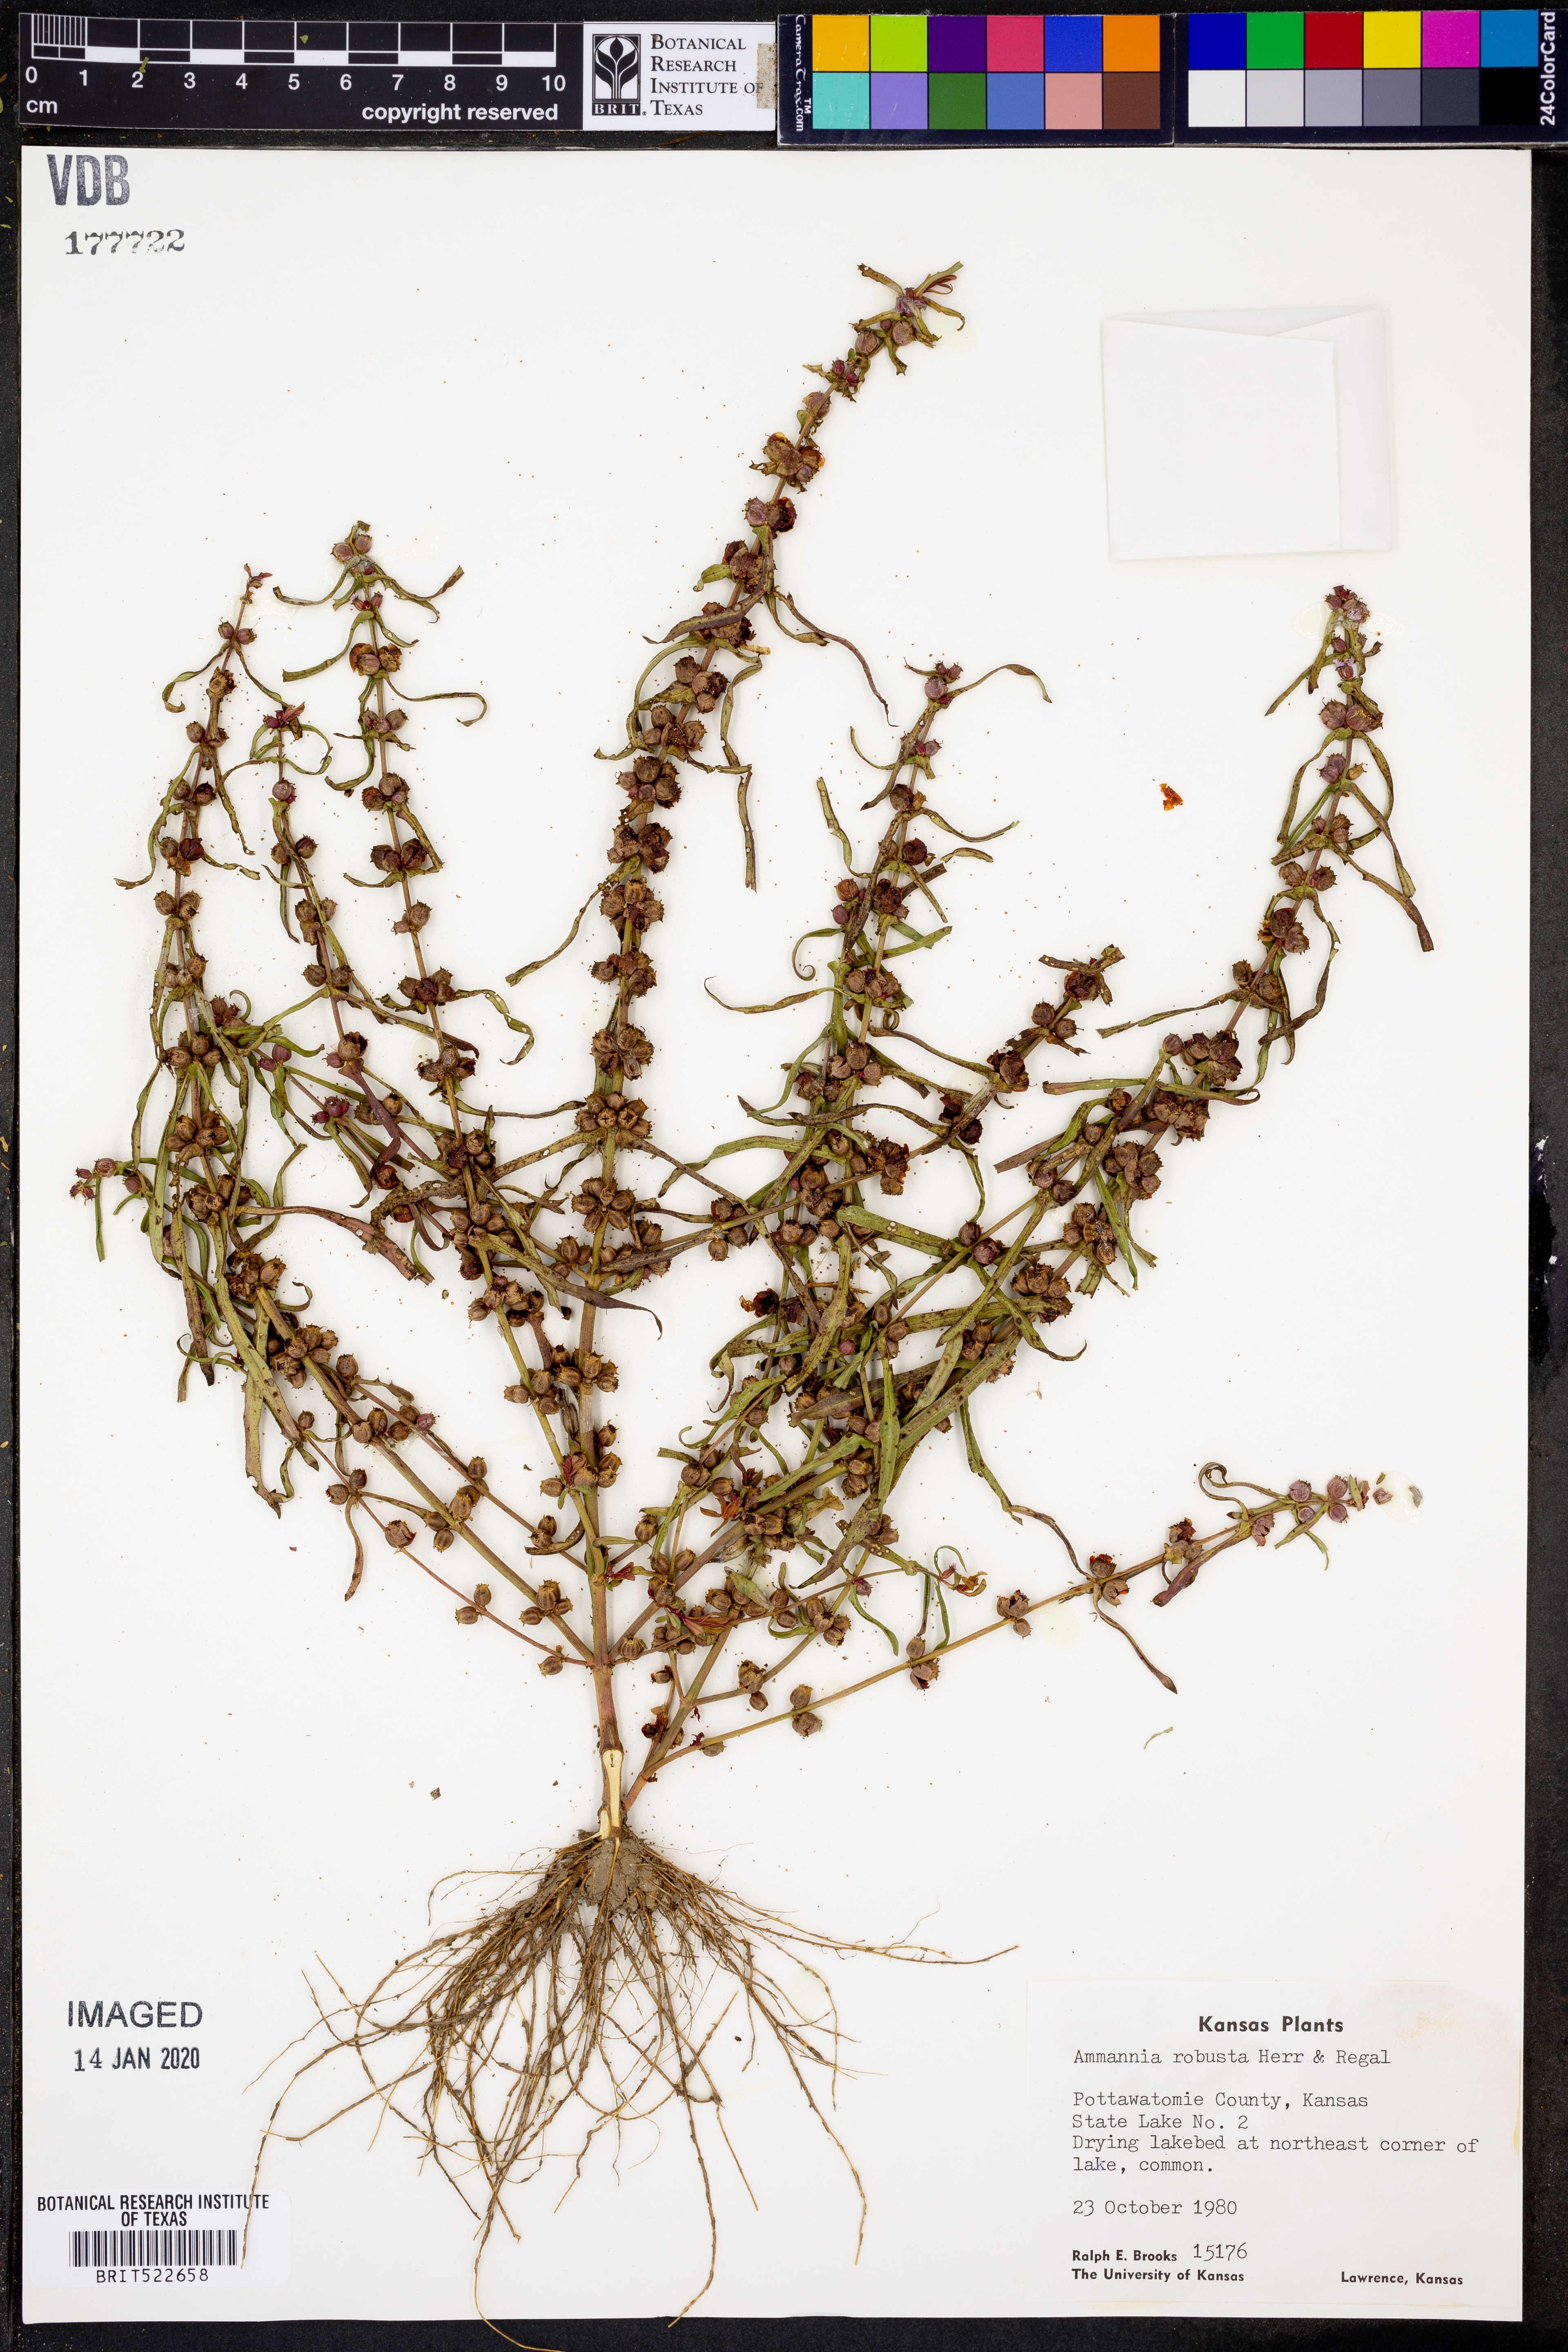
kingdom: Plantae
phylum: Tracheophyta
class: Magnoliopsida
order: Myrtales
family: Lythraceae
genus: Ammannia
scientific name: Ammannia robusta
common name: Grand ammannia
